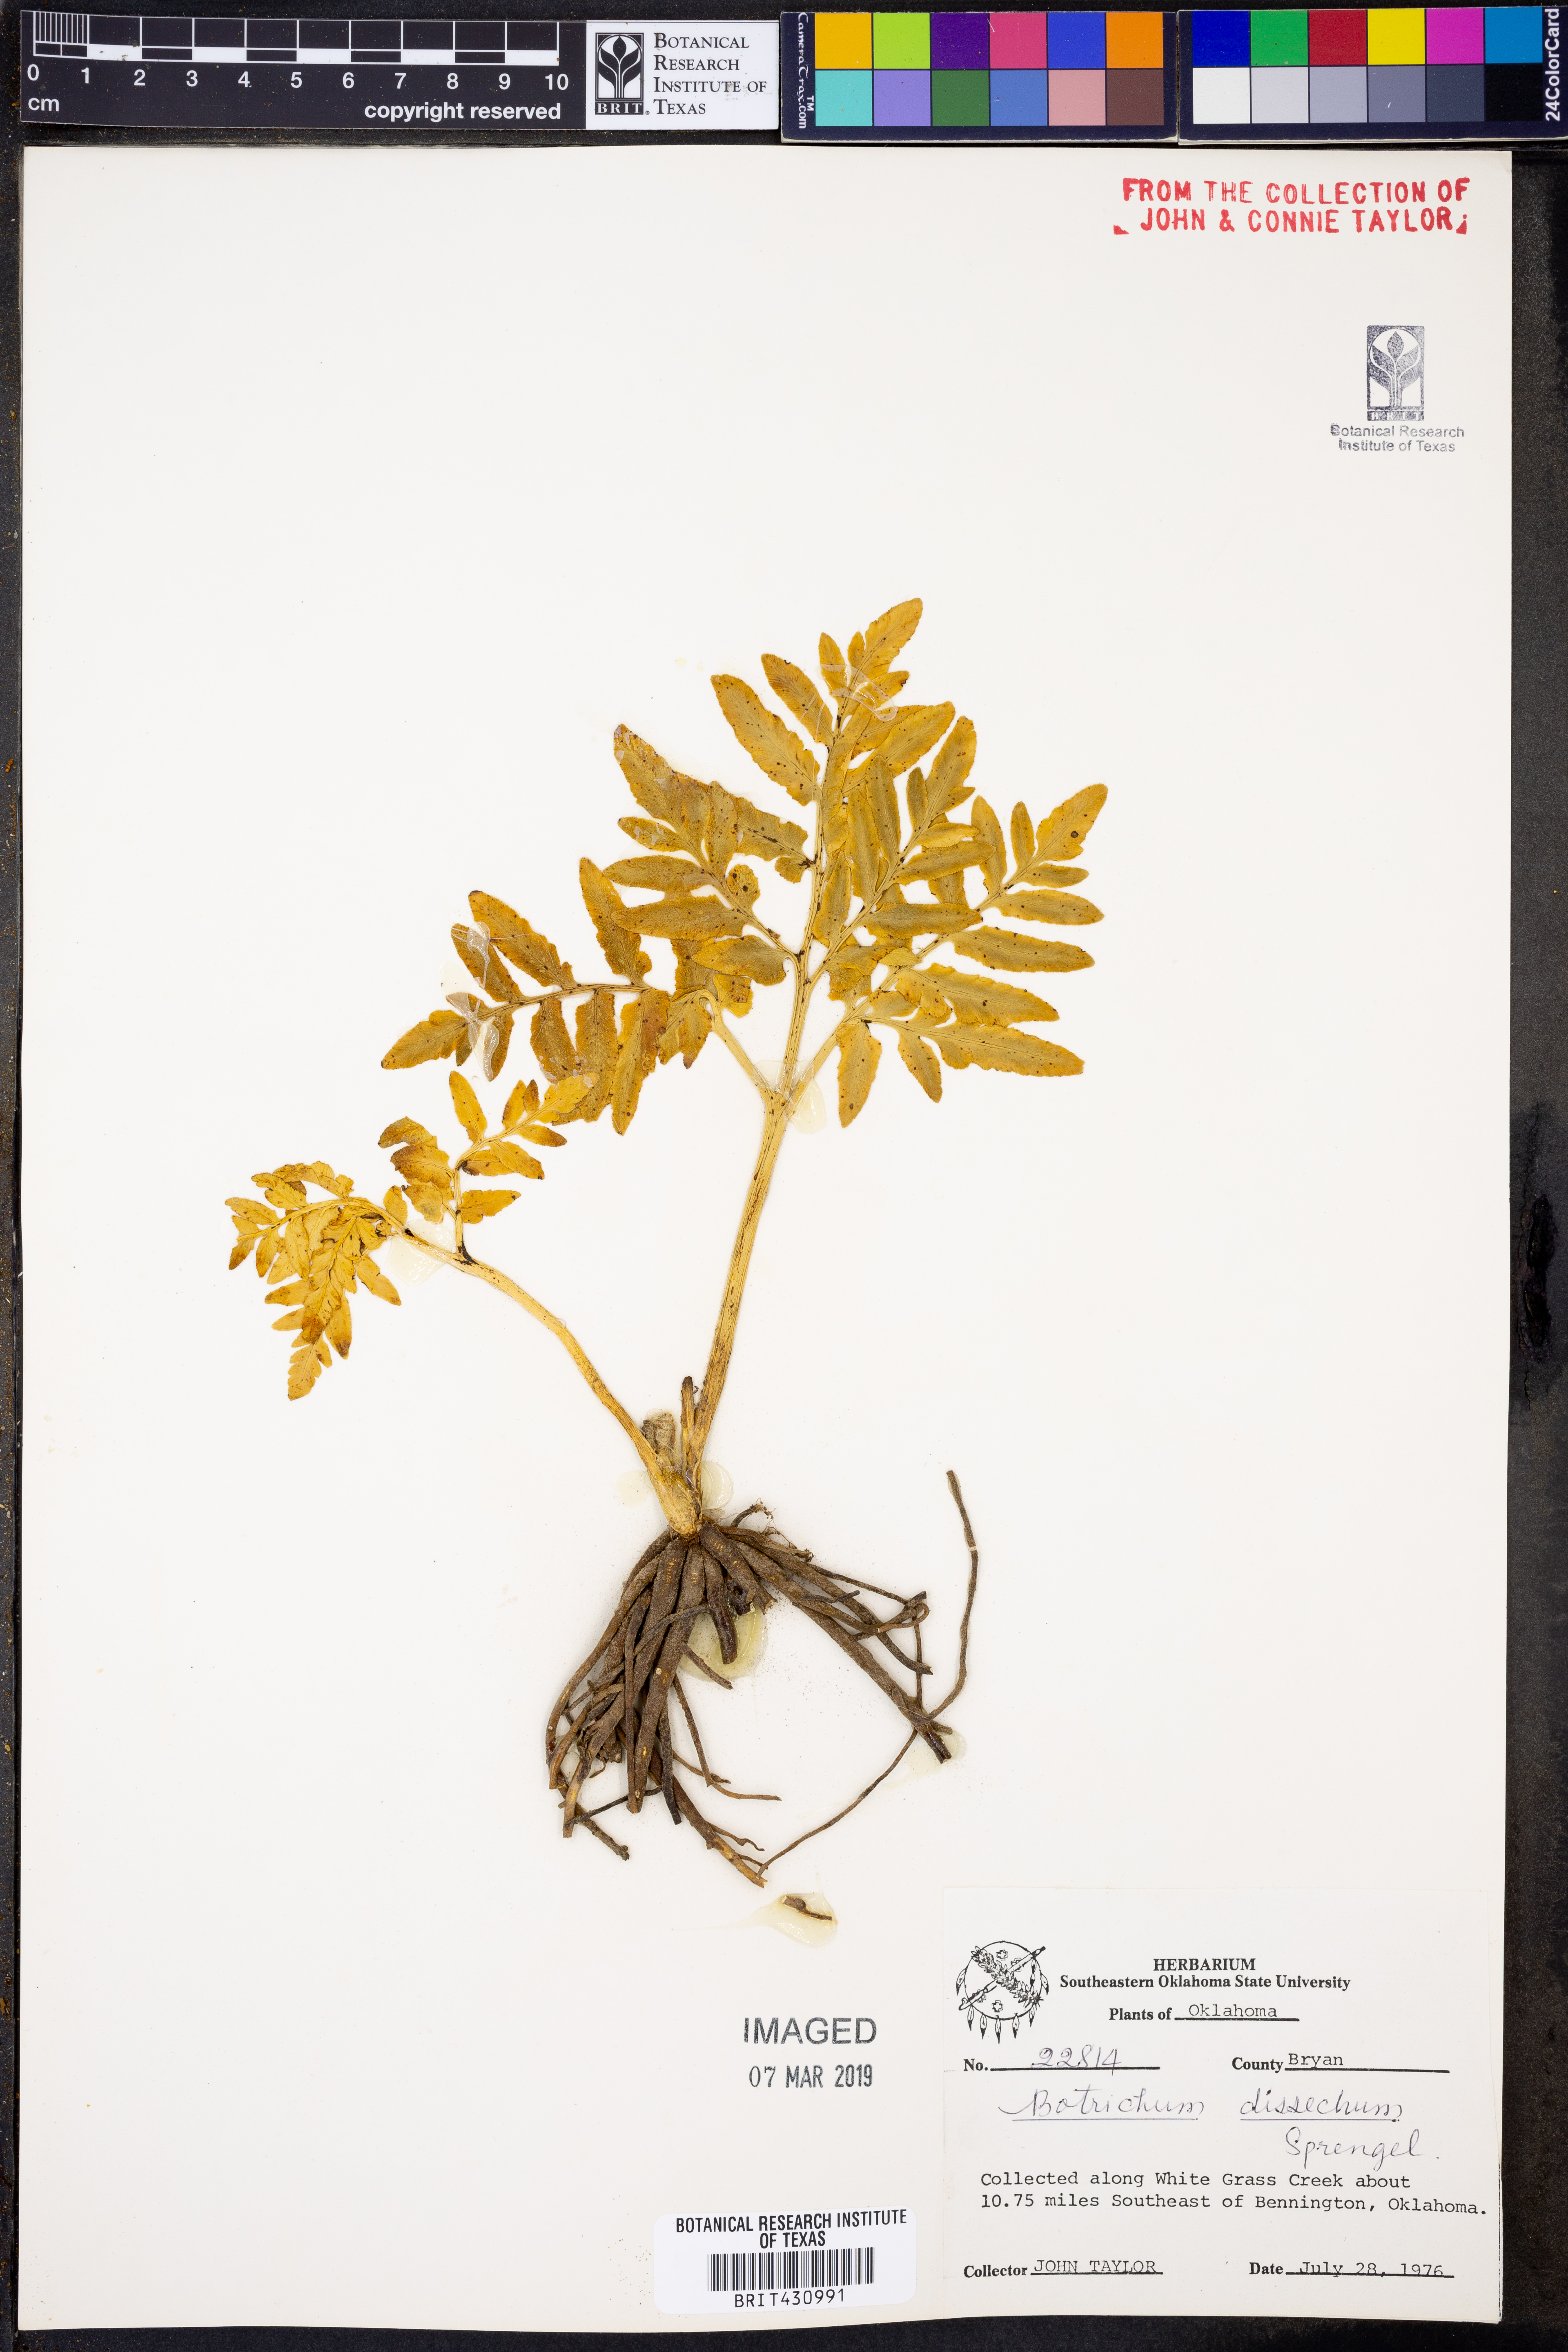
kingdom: Plantae
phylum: Tracheophyta
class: Polypodiopsida
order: Ophioglossales
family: Ophioglossaceae
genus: Sceptridium
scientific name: Sceptridium dissectum
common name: Cut-leaved grapefern
